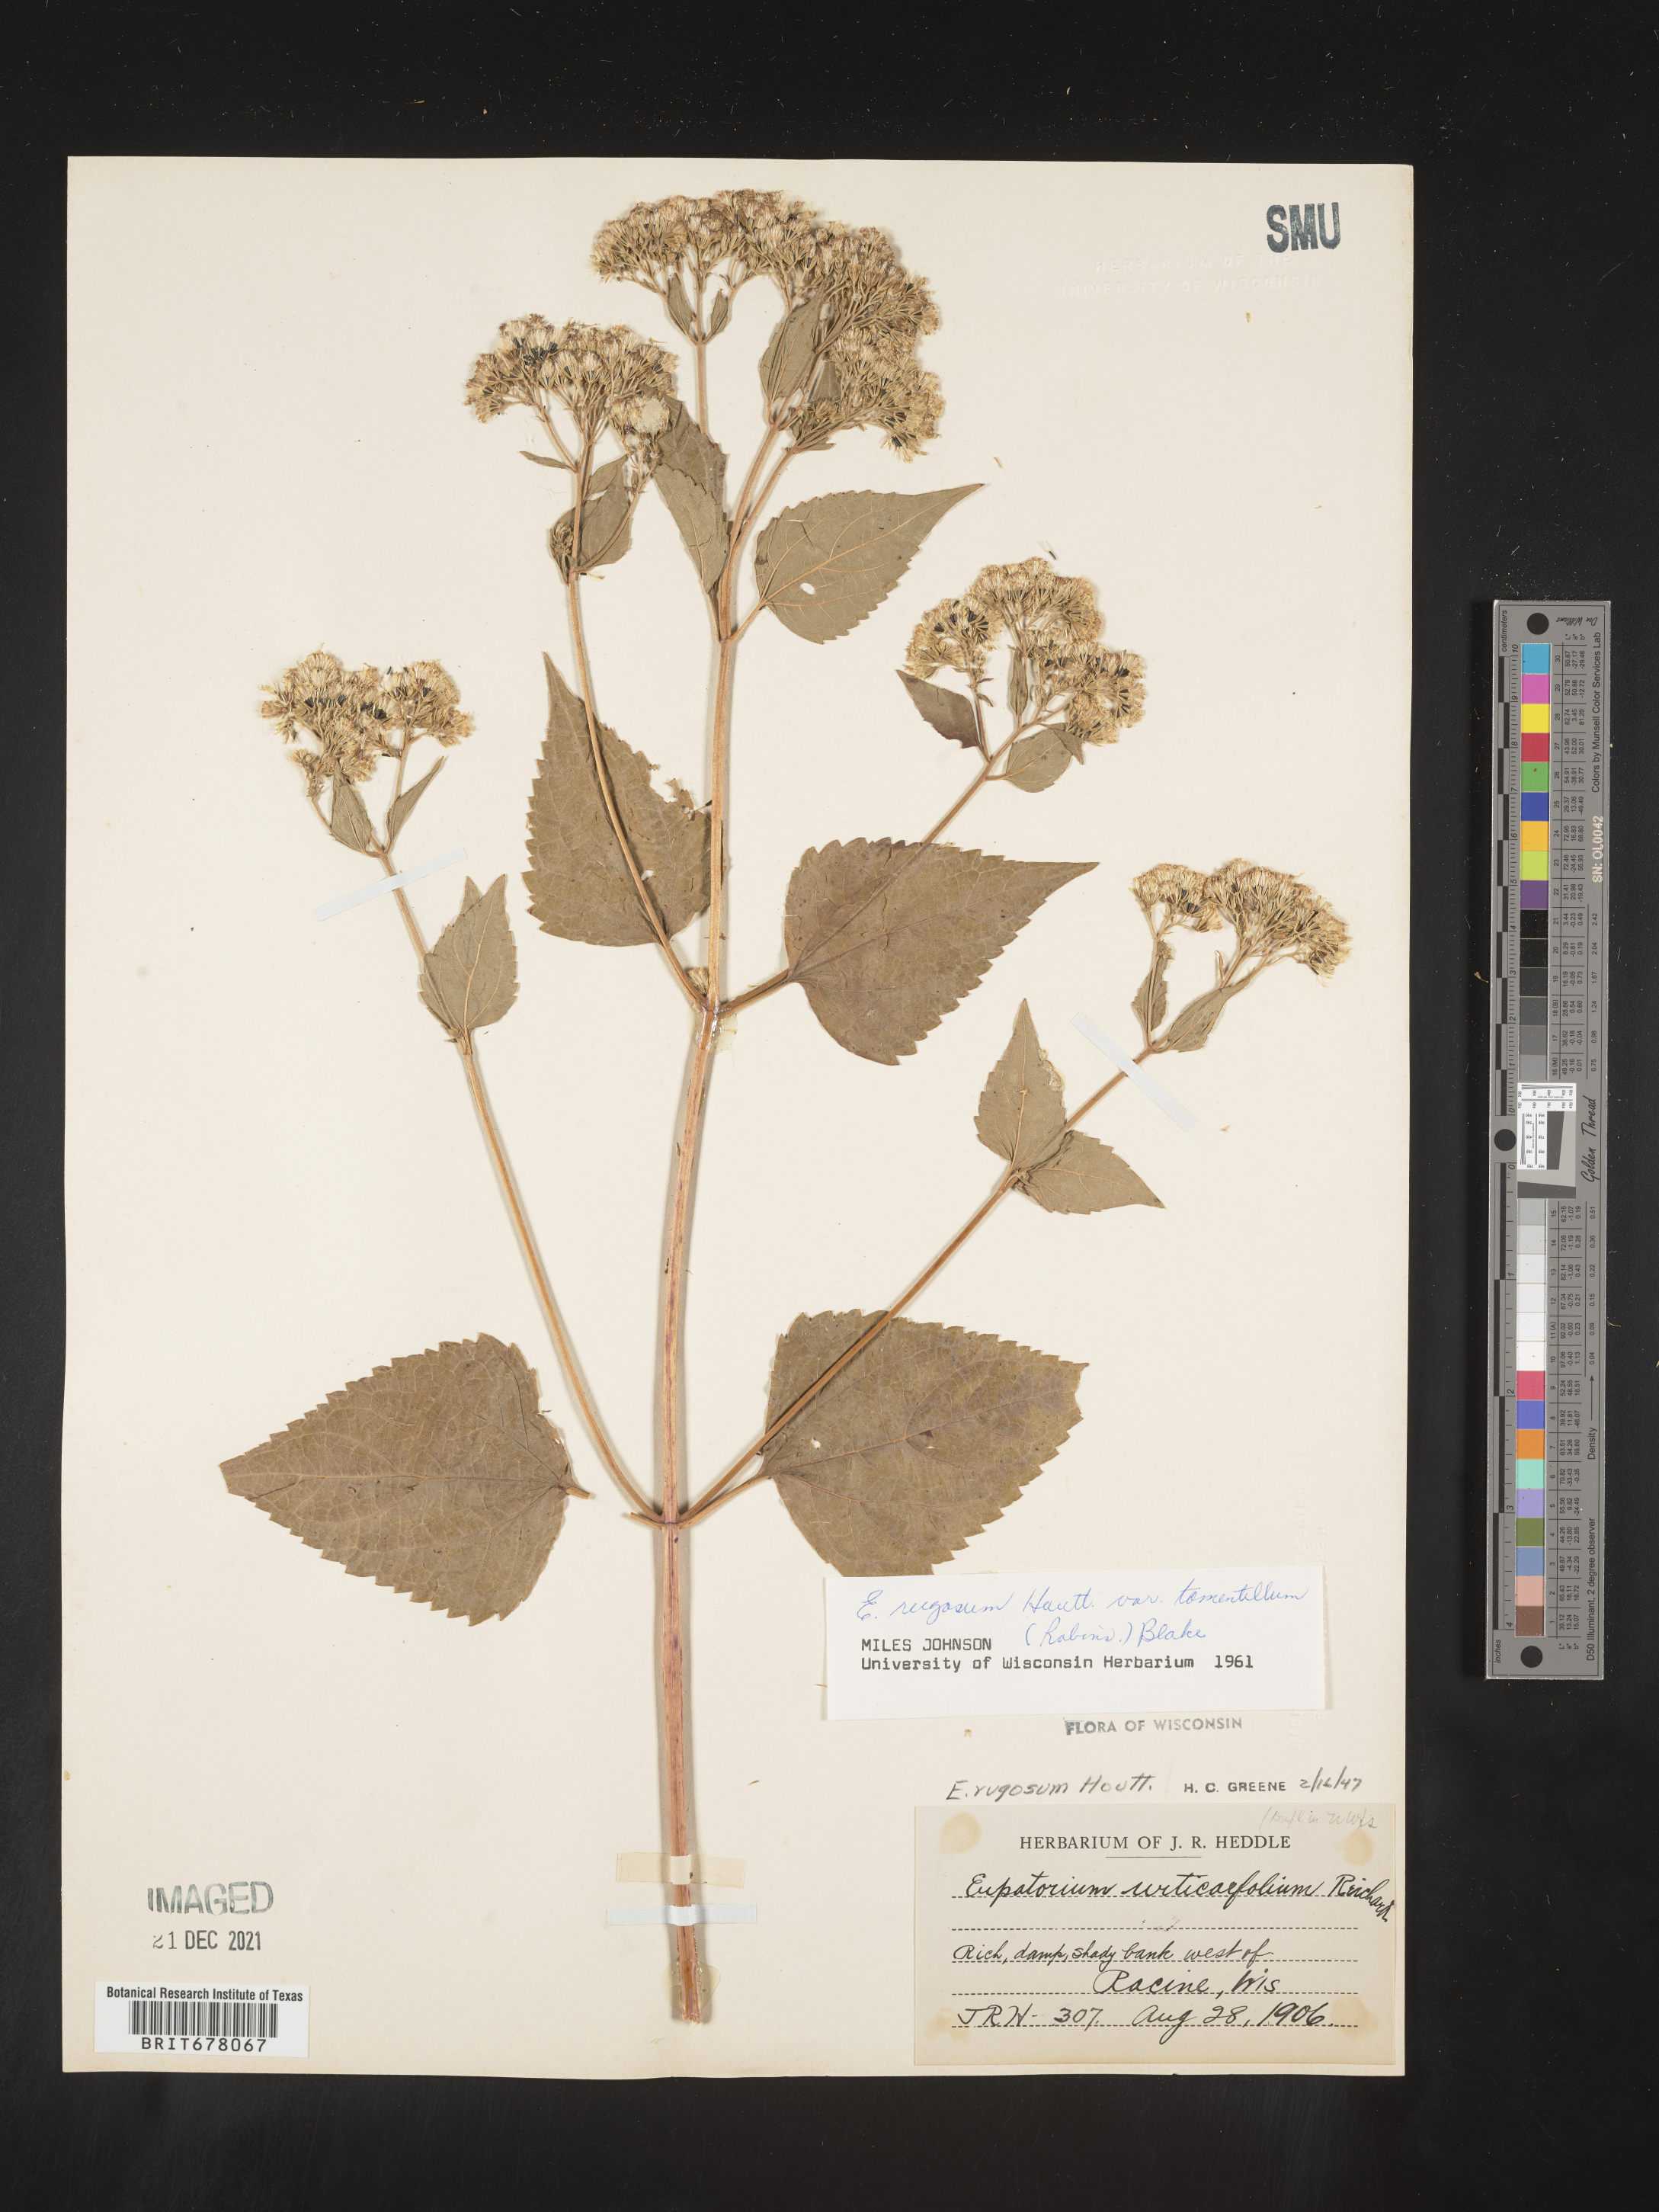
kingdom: Plantae
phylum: Tracheophyta
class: Magnoliopsida
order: Asterales
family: Asteraceae
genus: Eupatorium
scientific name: Eupatorium
